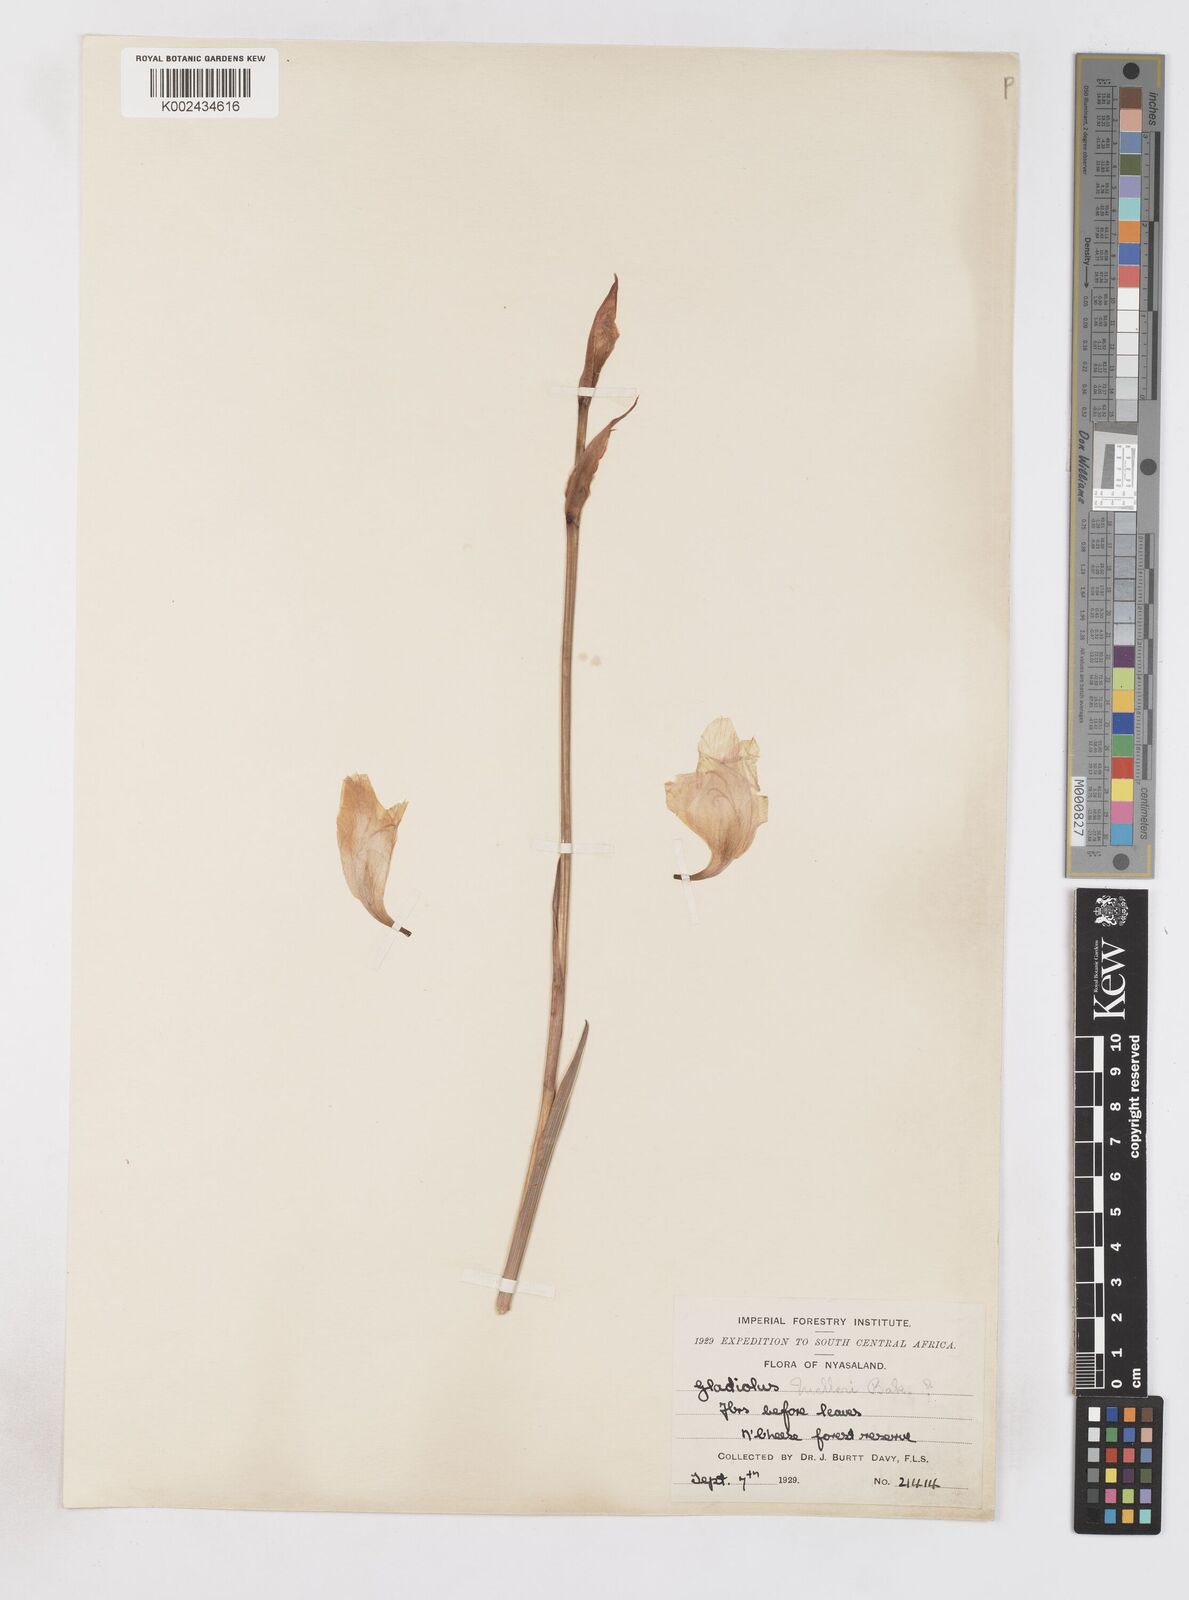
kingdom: Plantae
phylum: Tracheophyta
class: Liliopsida
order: Asparagales
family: Iridaceae
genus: Gladiolus
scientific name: Gladiolus melleri
